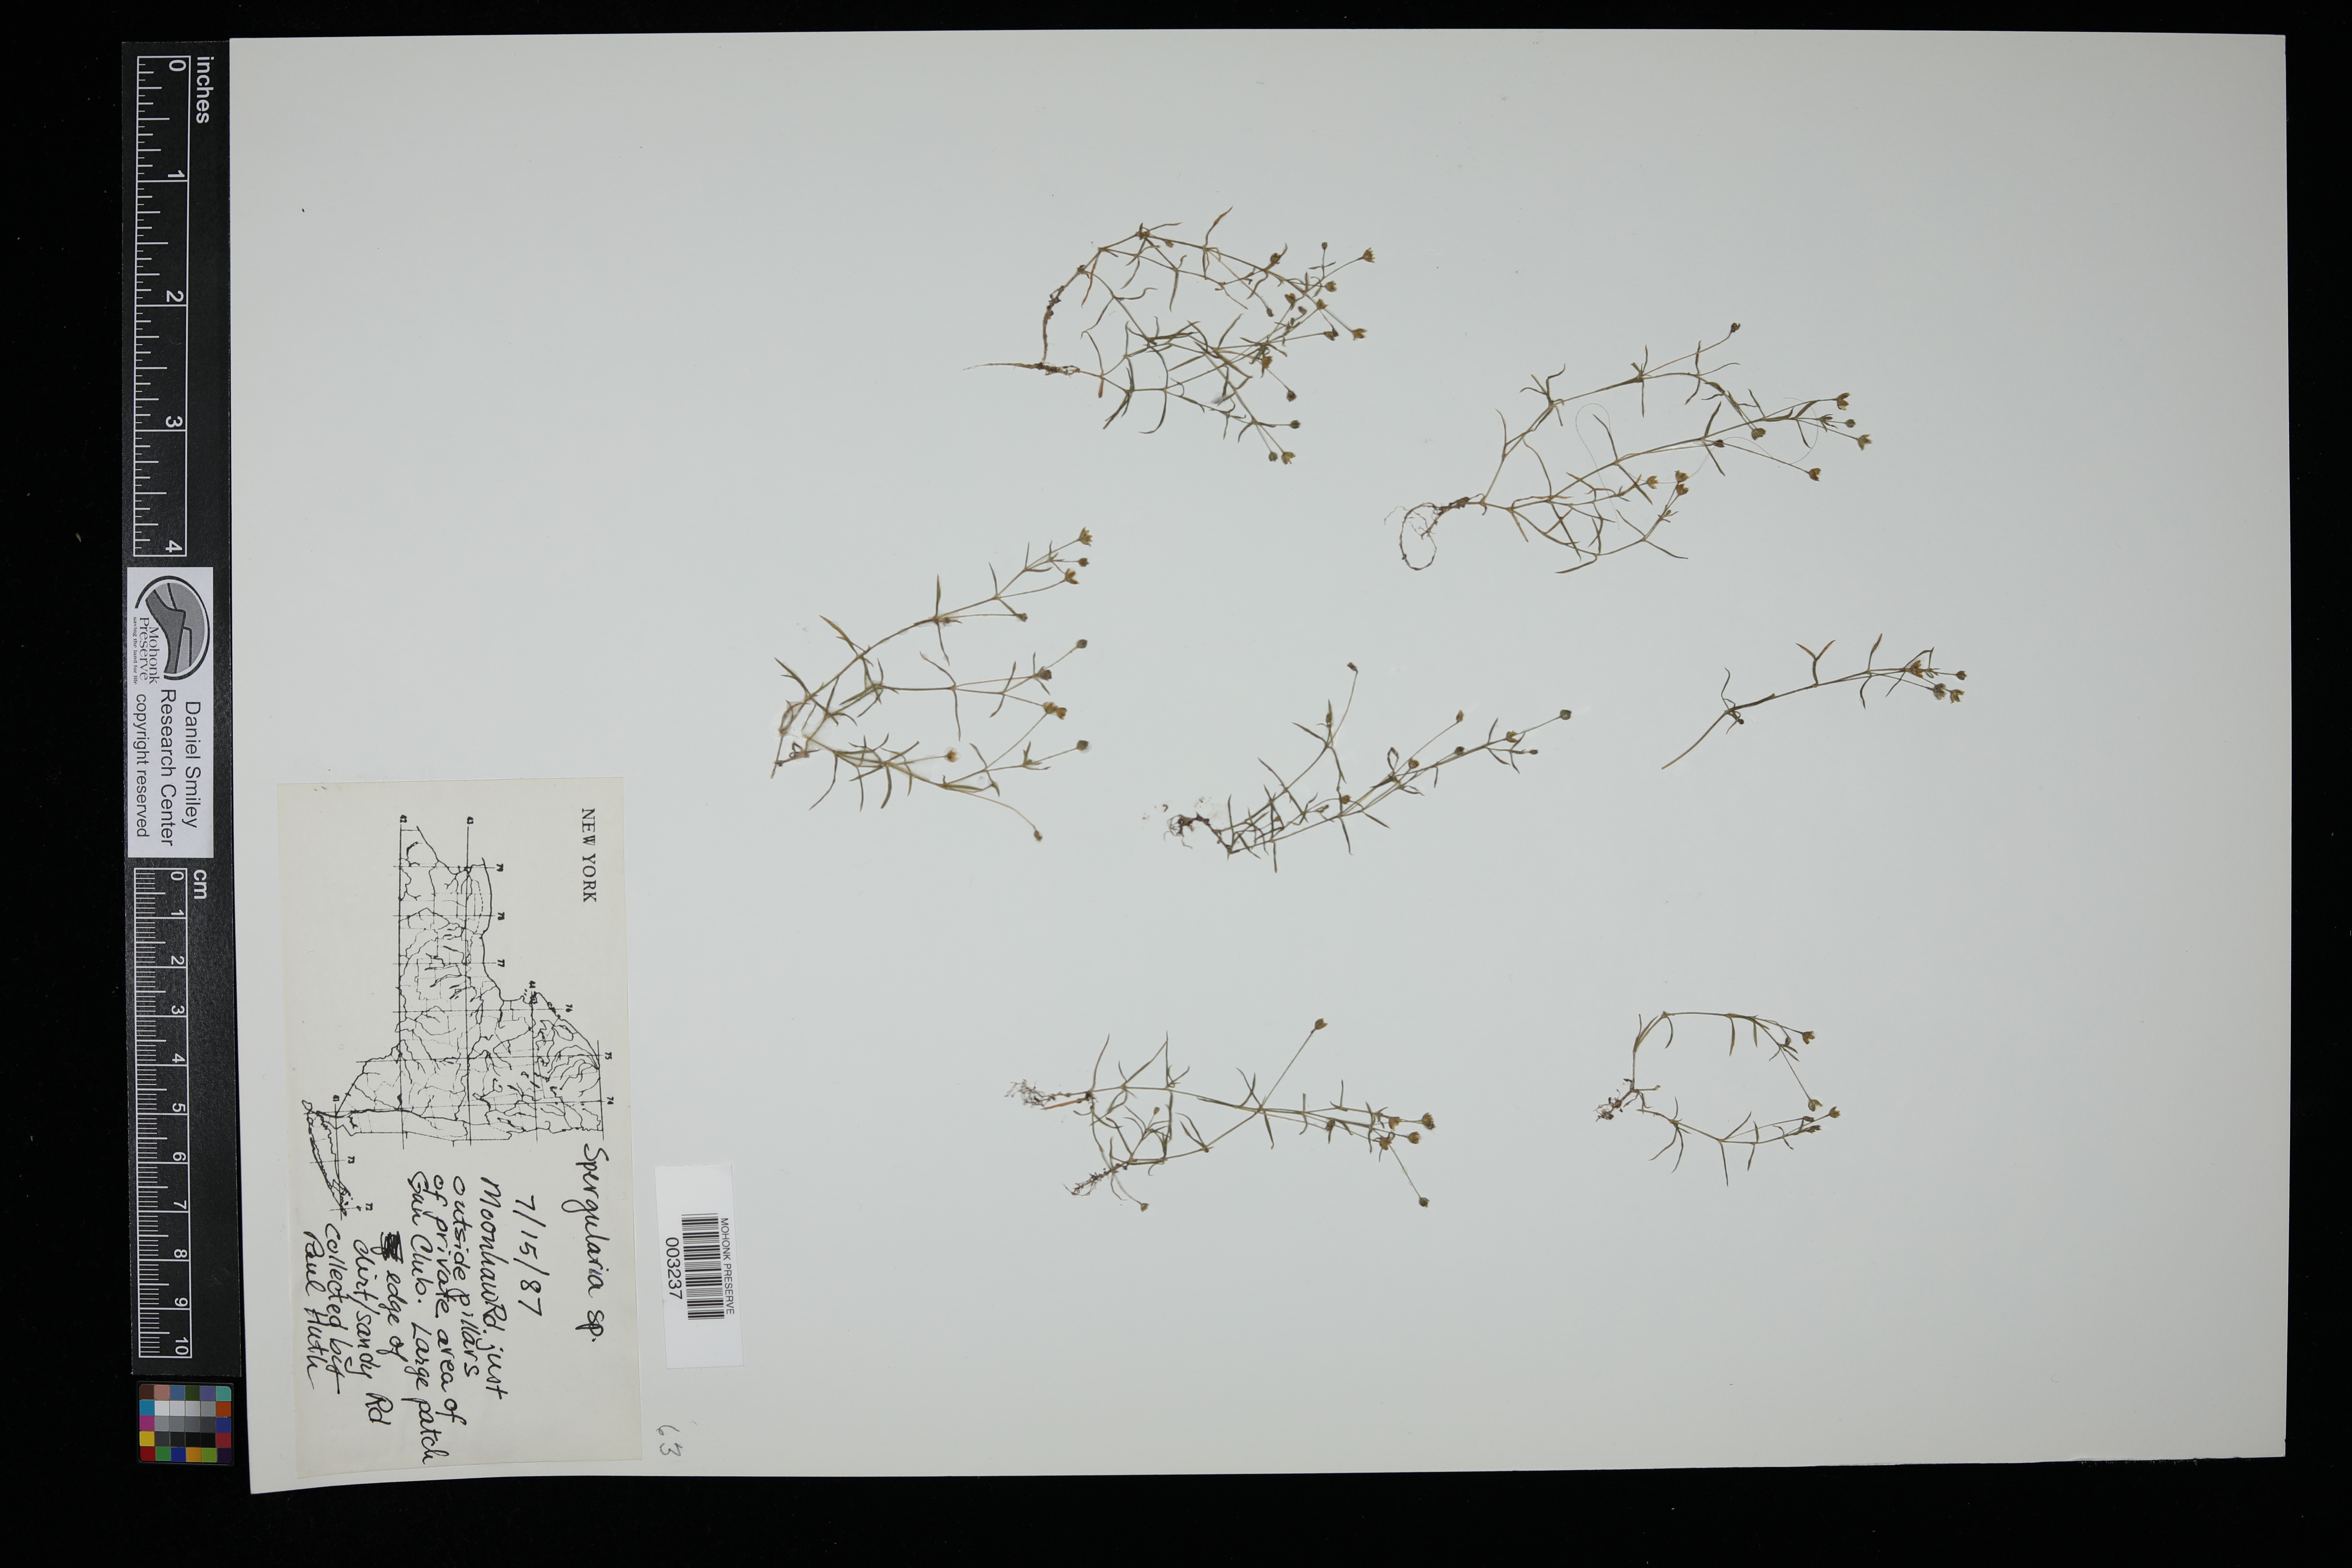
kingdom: Plantae
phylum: Tracheophyta
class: Magnoliopsida
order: Caryophyllales
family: Caryophyllaceae
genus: Spergularia
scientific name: Spergularia
